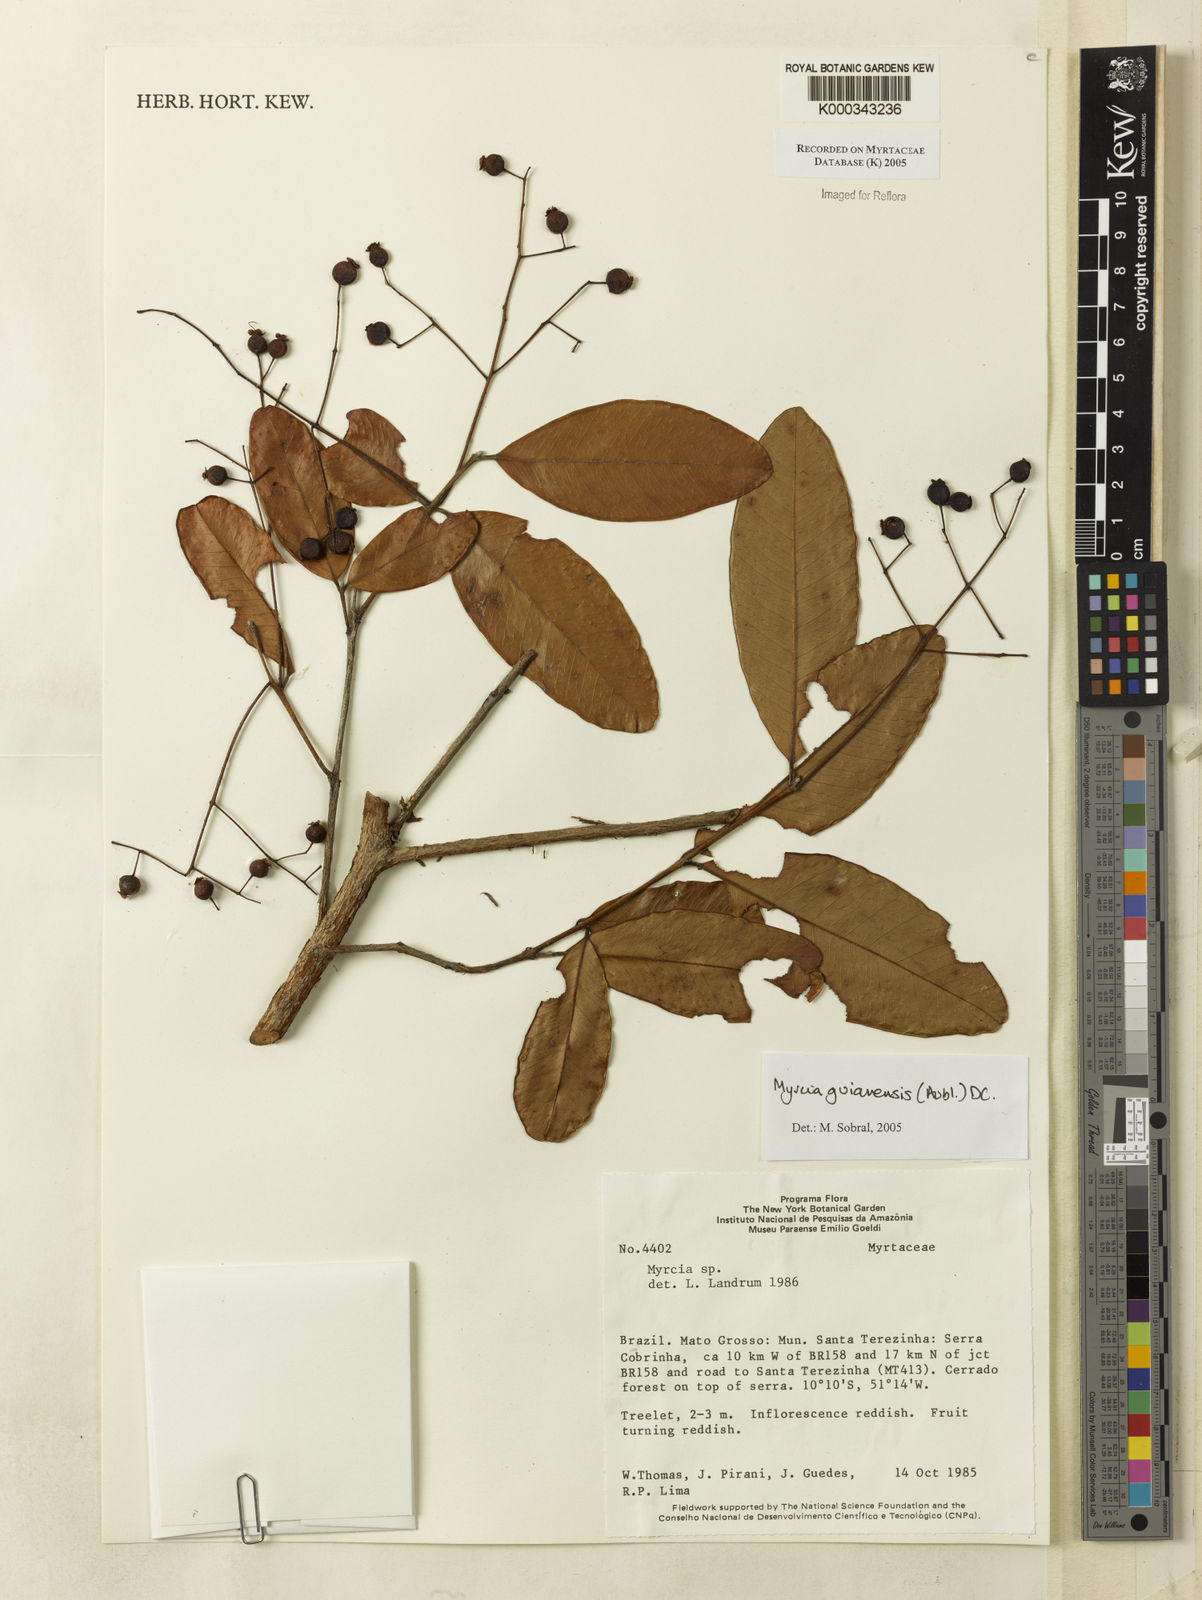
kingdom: Plantae
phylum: Tracheophyta
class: Magnoliopsida
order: Myrtales
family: Myrtaceae
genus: Myrcia
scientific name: Myrcia guianensis
